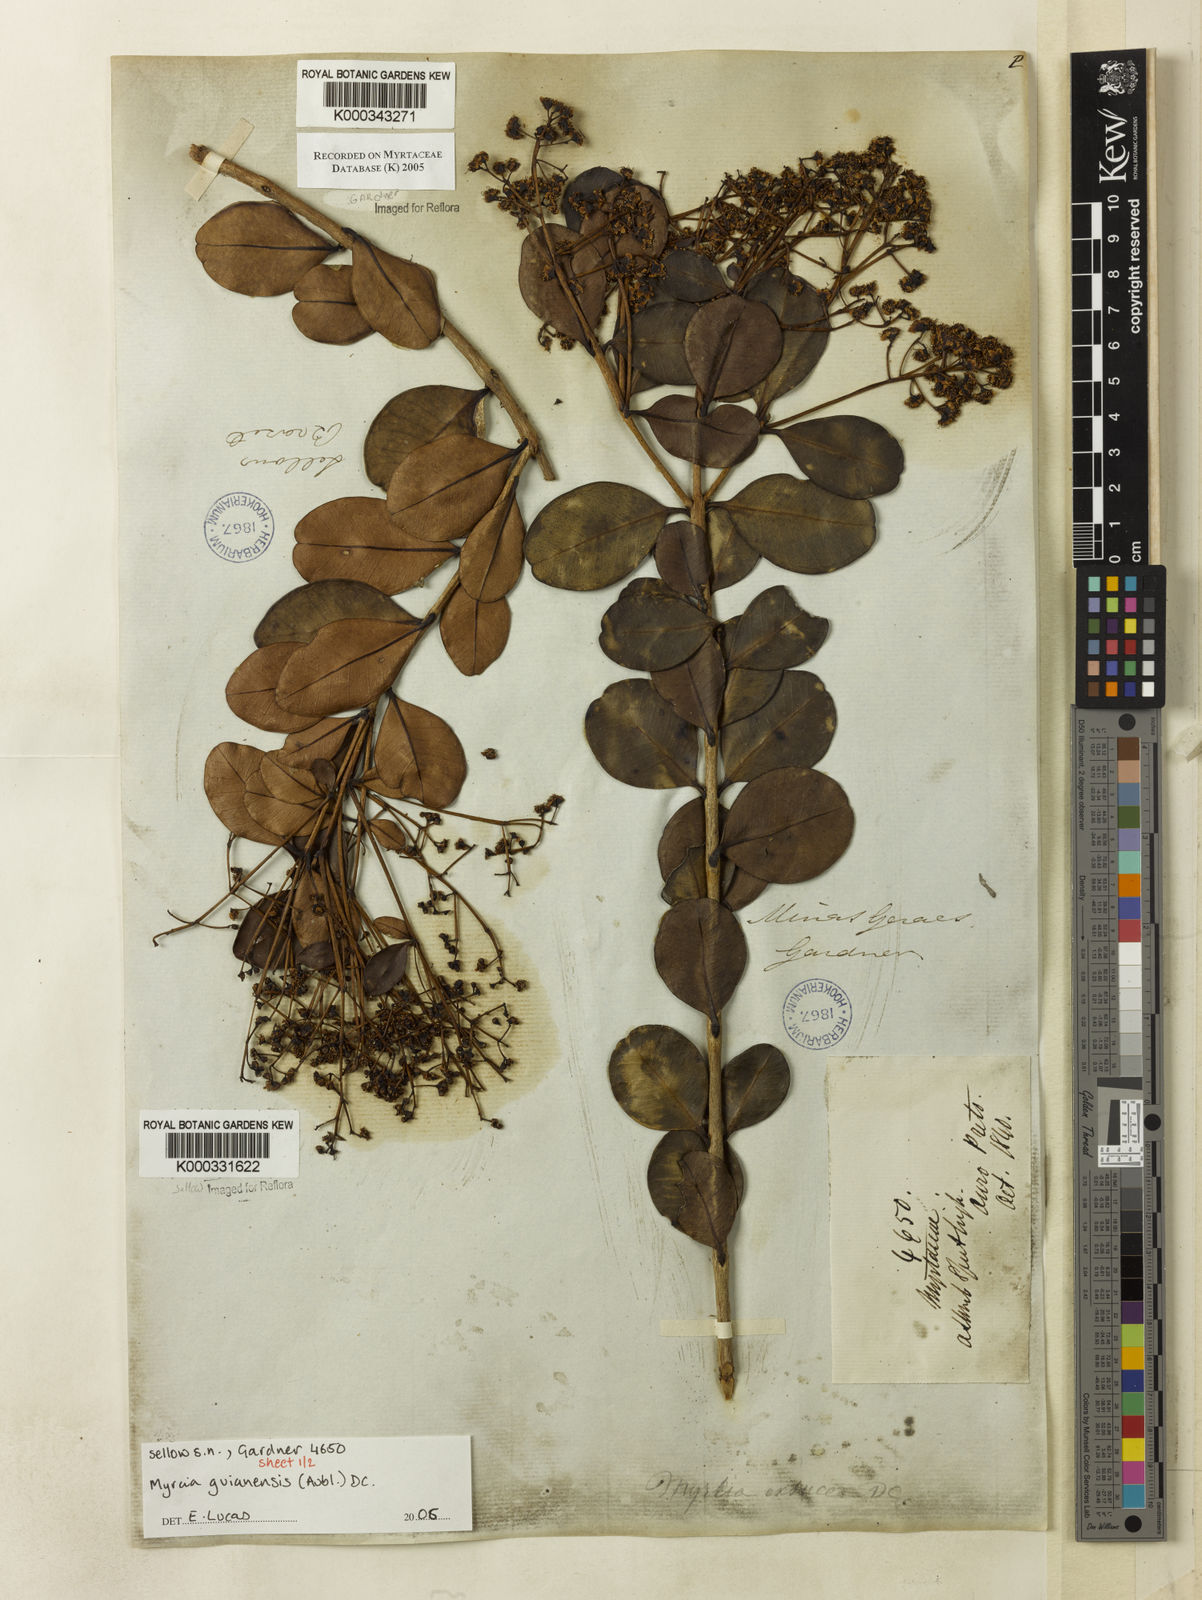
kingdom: Plantae
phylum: Tracheophyta
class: Magnoliopsida
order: Myrtales
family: Myrtaceae
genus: Myrcia
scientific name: Myrcia guianensis
